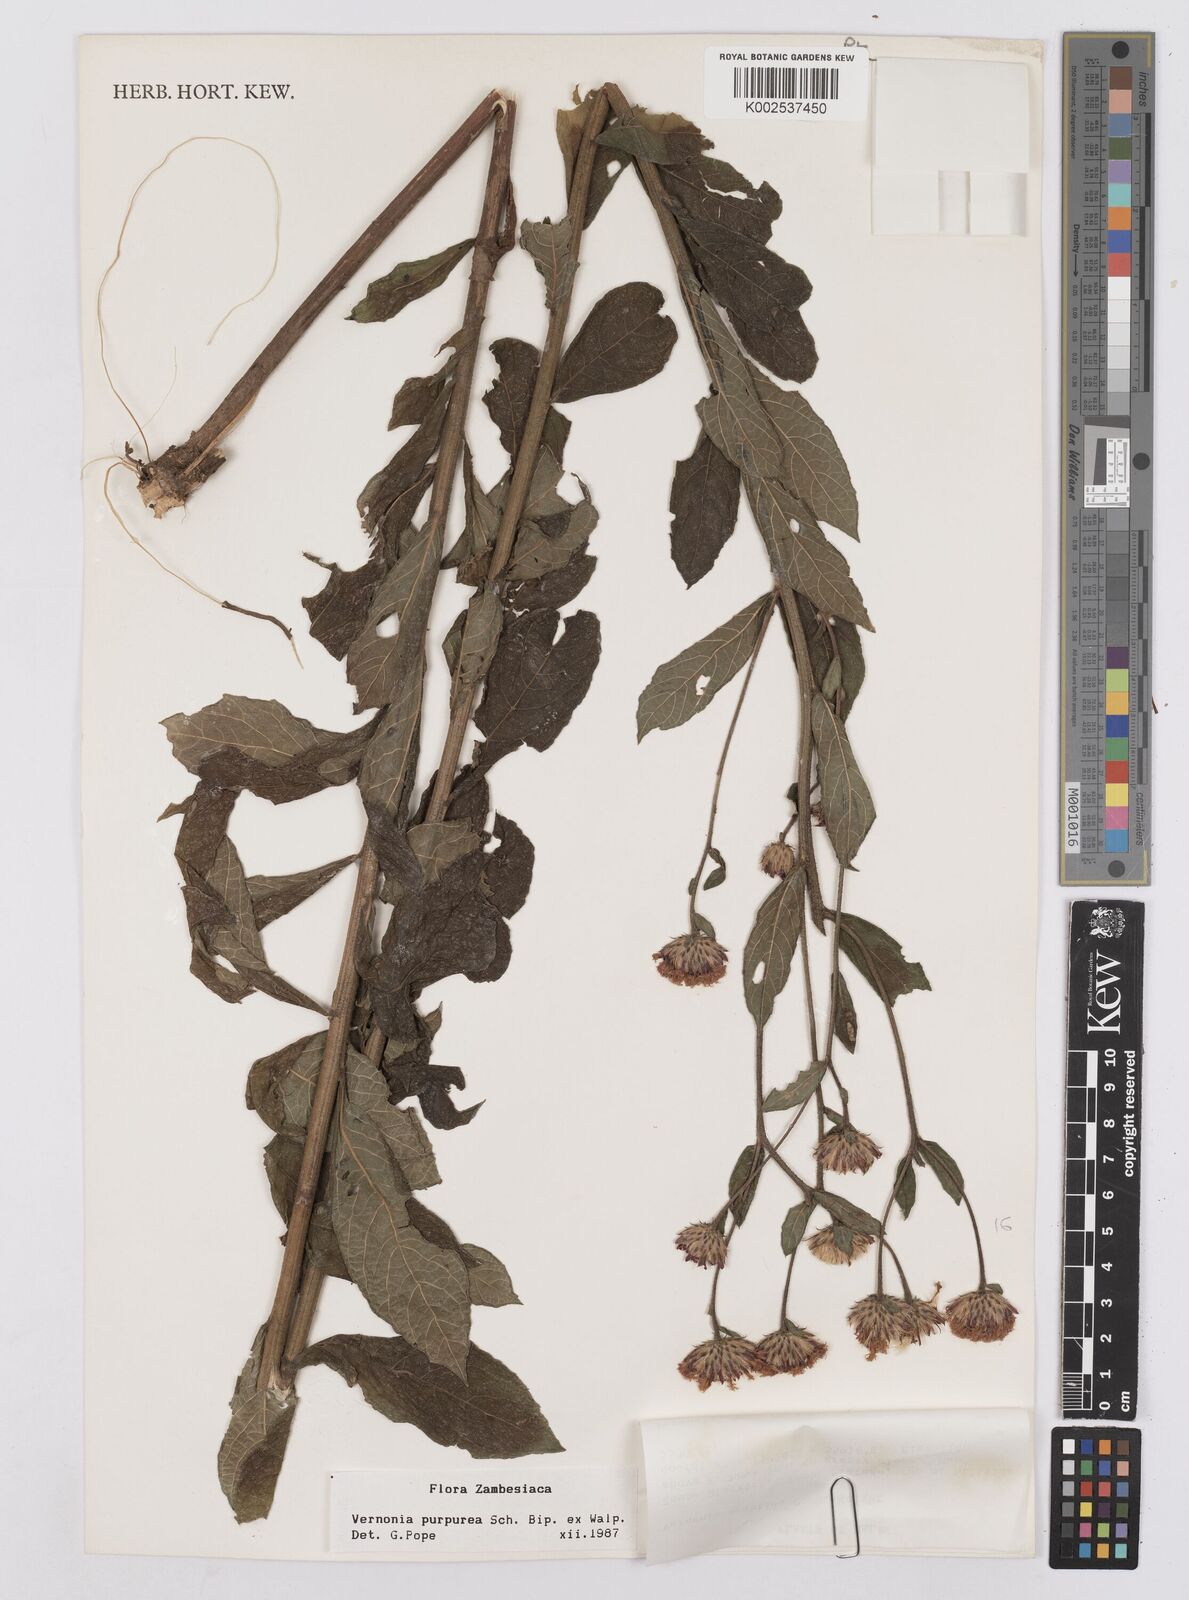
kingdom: Plantae
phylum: Tracheophyta
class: Magnoliopsida
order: Asterales
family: Asteraceae
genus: Nothovernonia
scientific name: Nothovernonia purpurea
